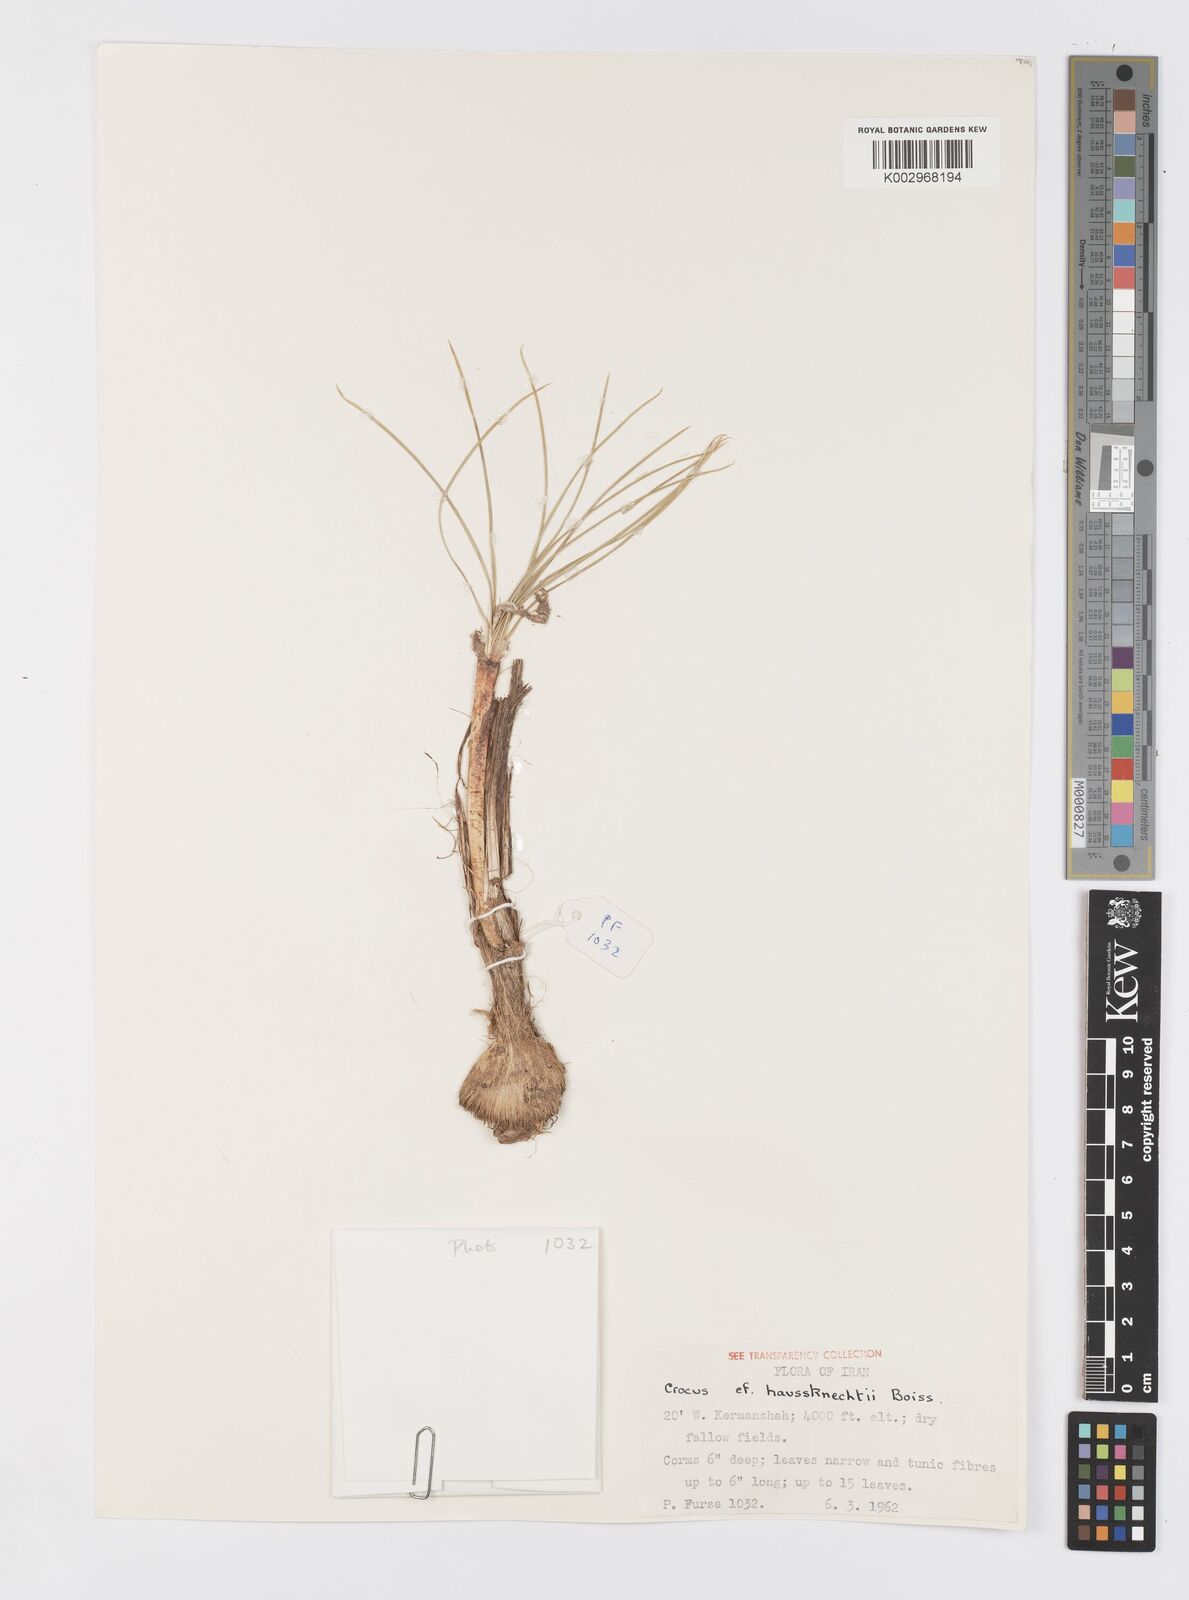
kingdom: Plantae
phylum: Tracheophyta
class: Liliopsida
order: Asparagales
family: Iridaceae
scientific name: Iridaceae
